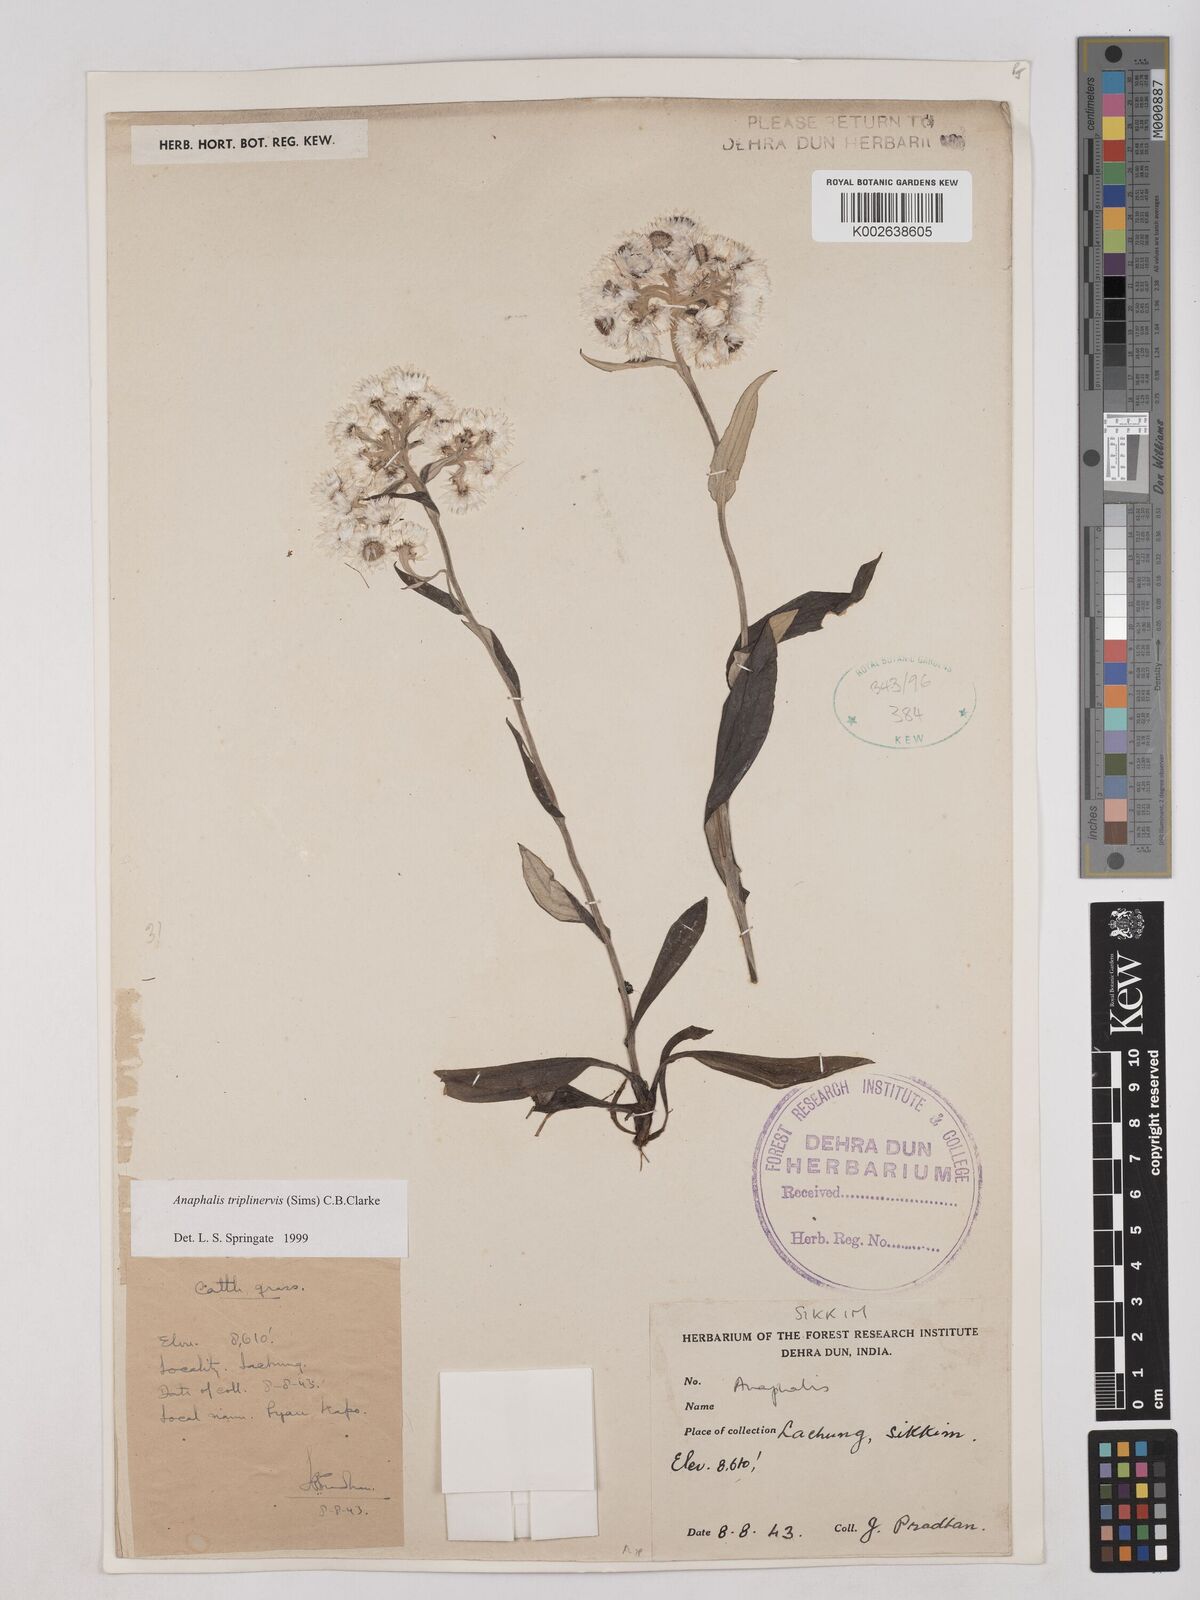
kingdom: Plantae
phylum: Tracheophyta
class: Magnoliopsida
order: Asterales
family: Asteraceae
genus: Anaphalis
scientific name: Anaphalis triplinervis
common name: Pearly everlasting
